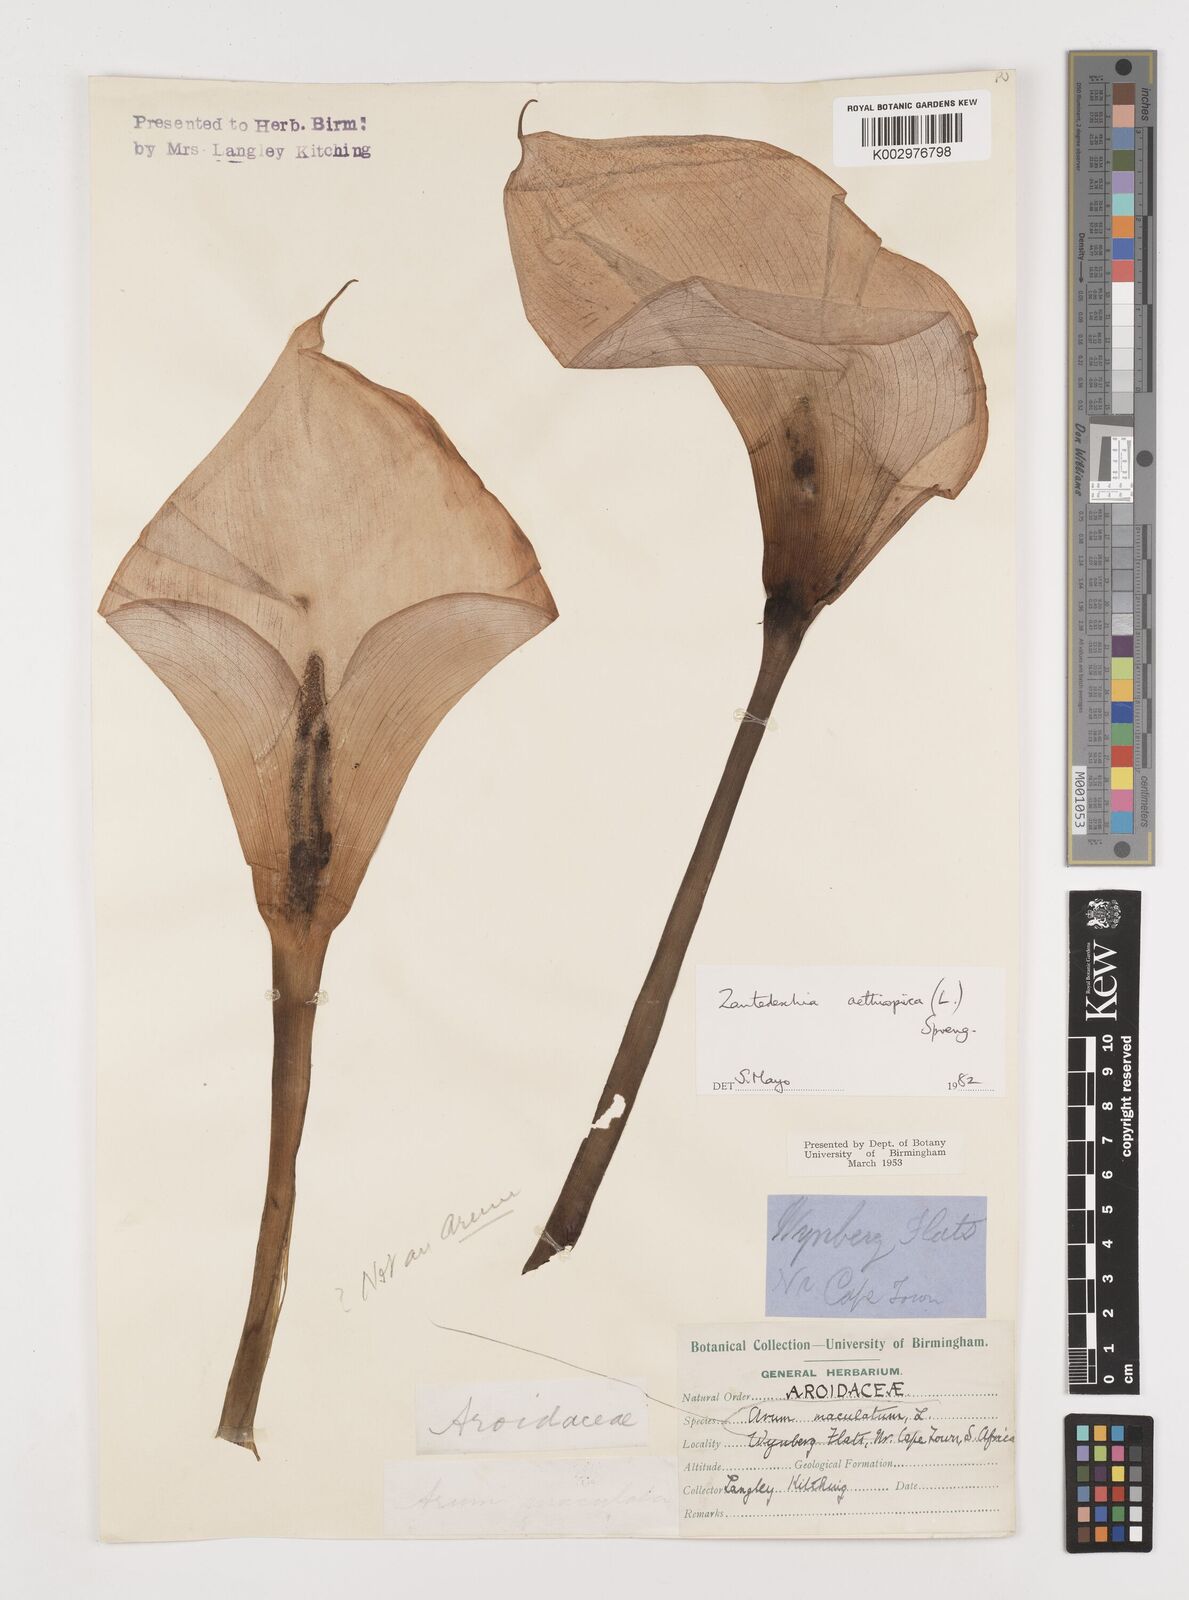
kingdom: Plantae
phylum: Tracheophyta
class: Liliopsida
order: Alismatales
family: Araceae
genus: Zantedeschia
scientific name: Zantedeschia aethiopica
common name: Altar-lily
